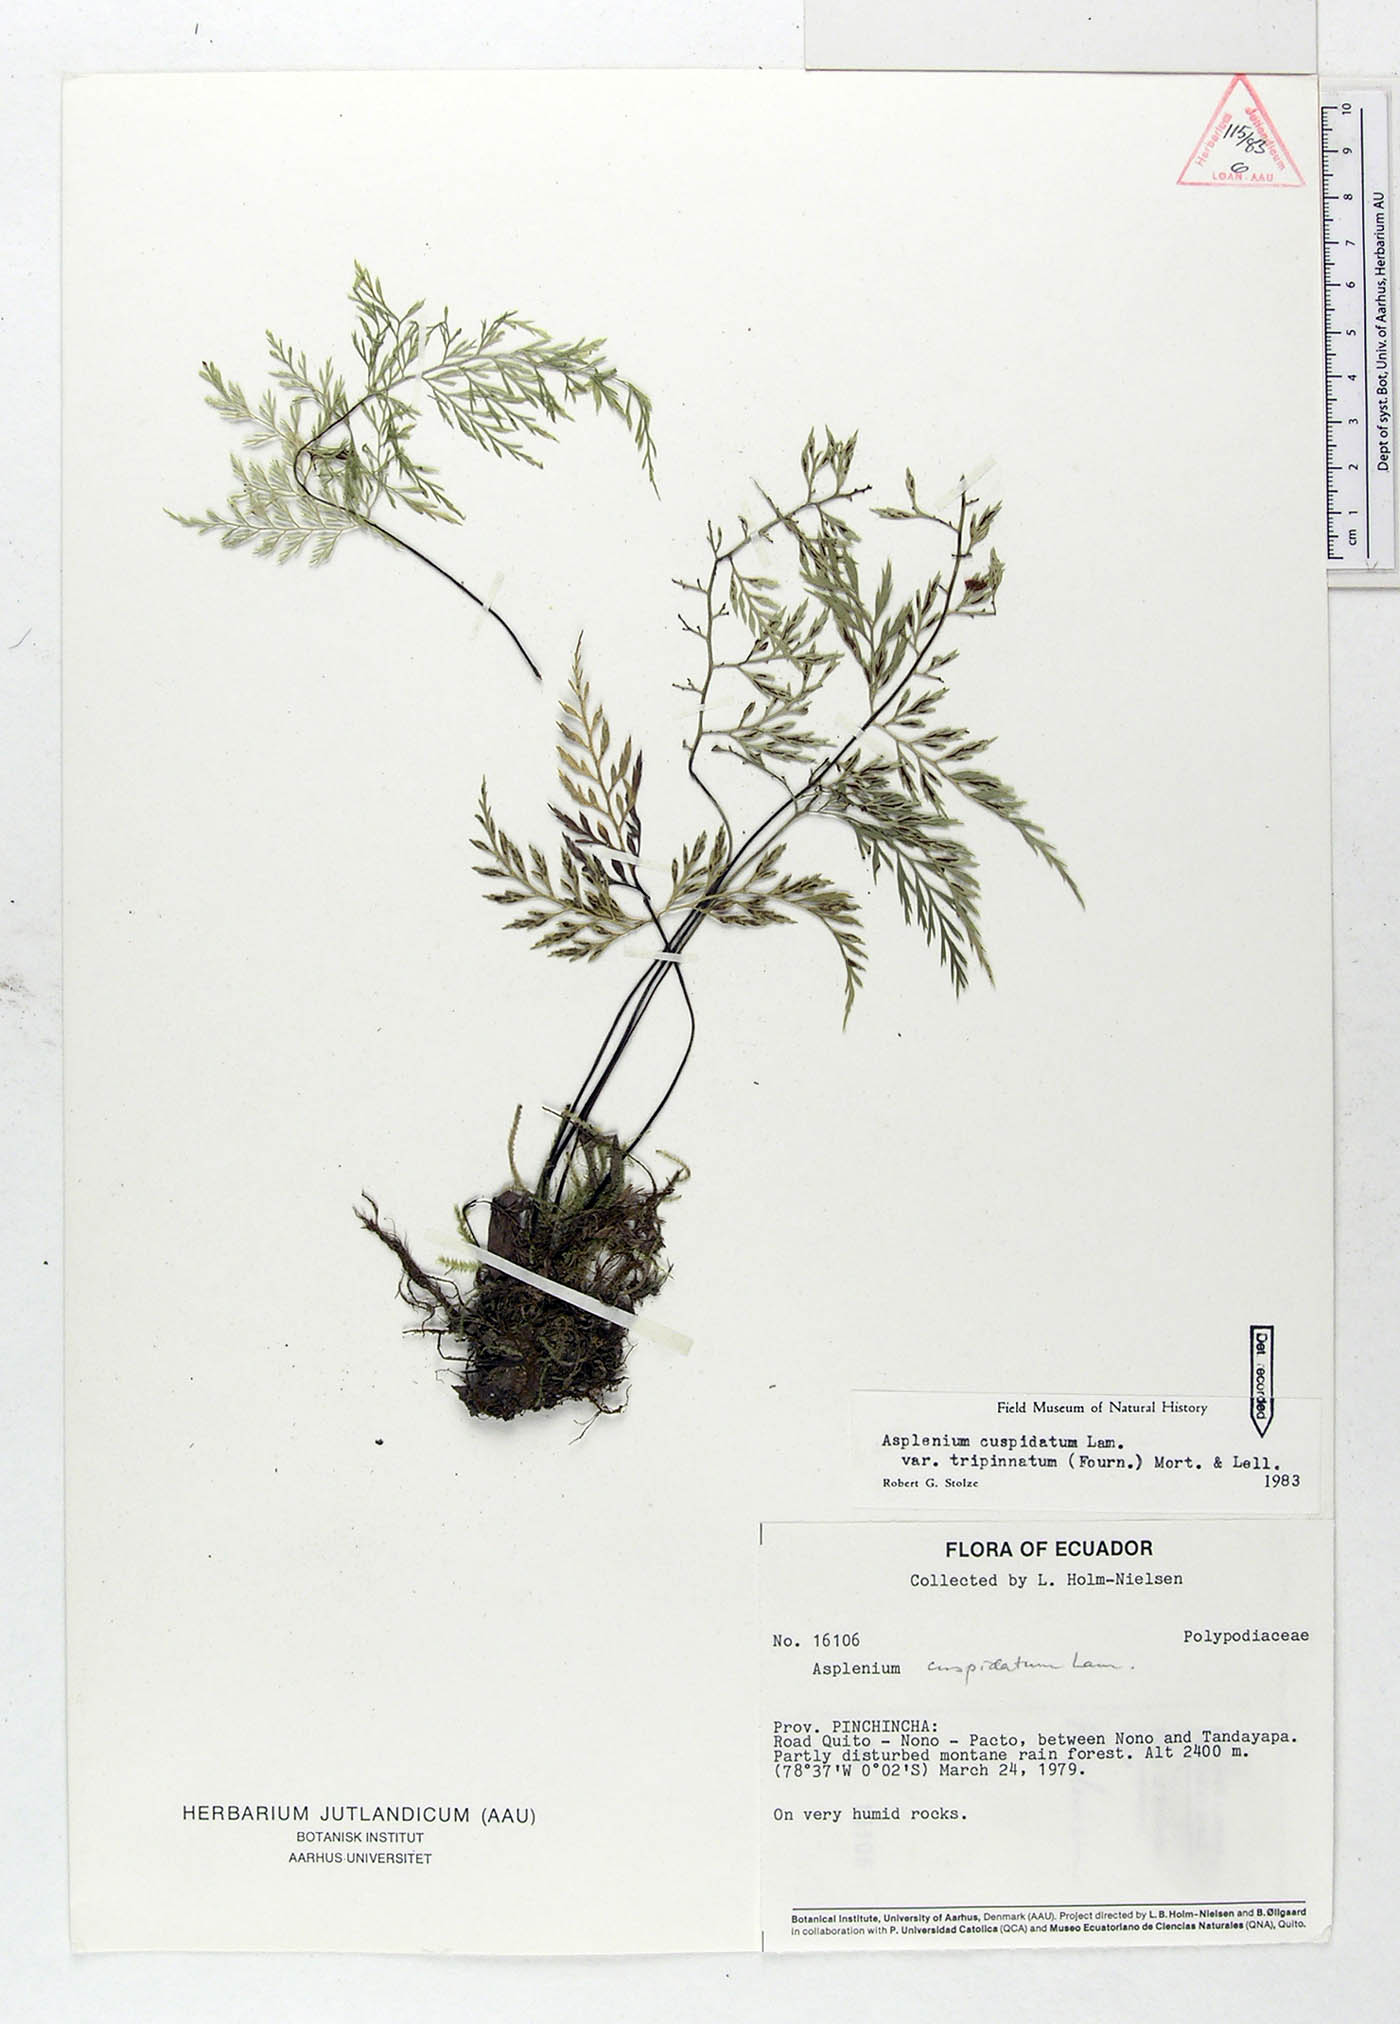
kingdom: Plantae
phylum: Tracheophyta
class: Polypodiopsida
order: Polypodiales
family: Aspleniaceae
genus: Asplenium
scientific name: Asplenium fragrans
